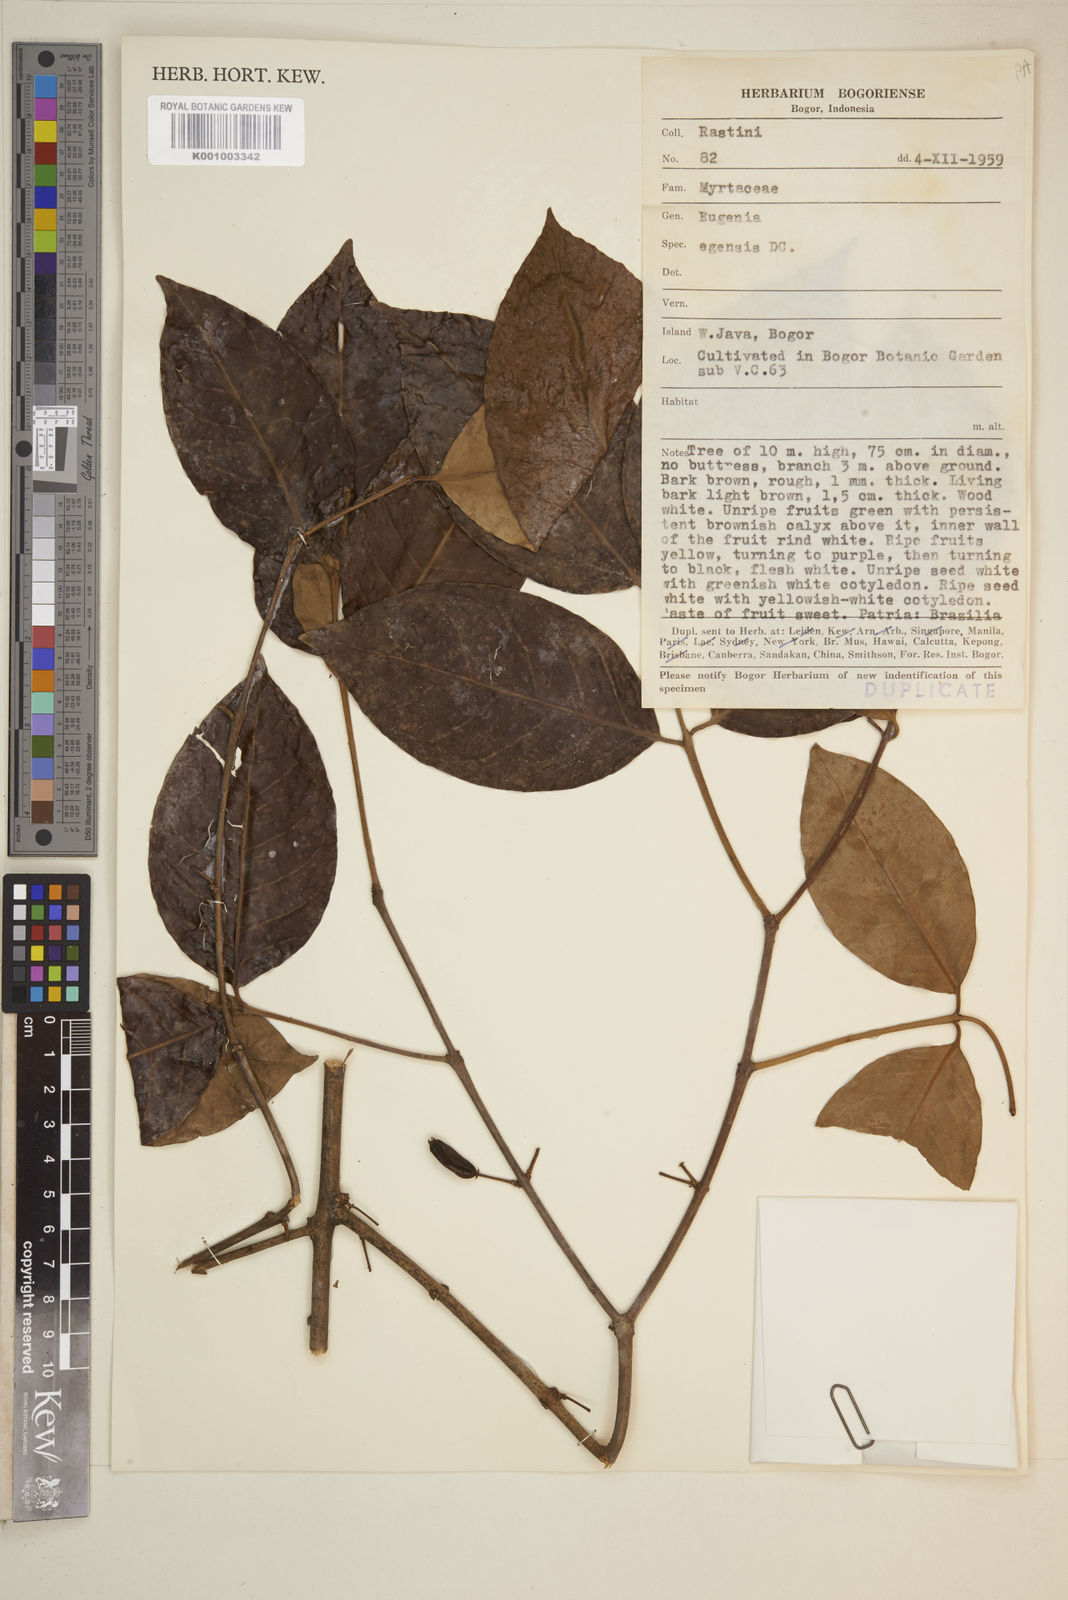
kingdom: Plantae
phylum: Tracheophyta
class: Magnoliopsida
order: Myrtales
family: Myrtaceae
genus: Eugenia
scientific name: Eugenia egensis
